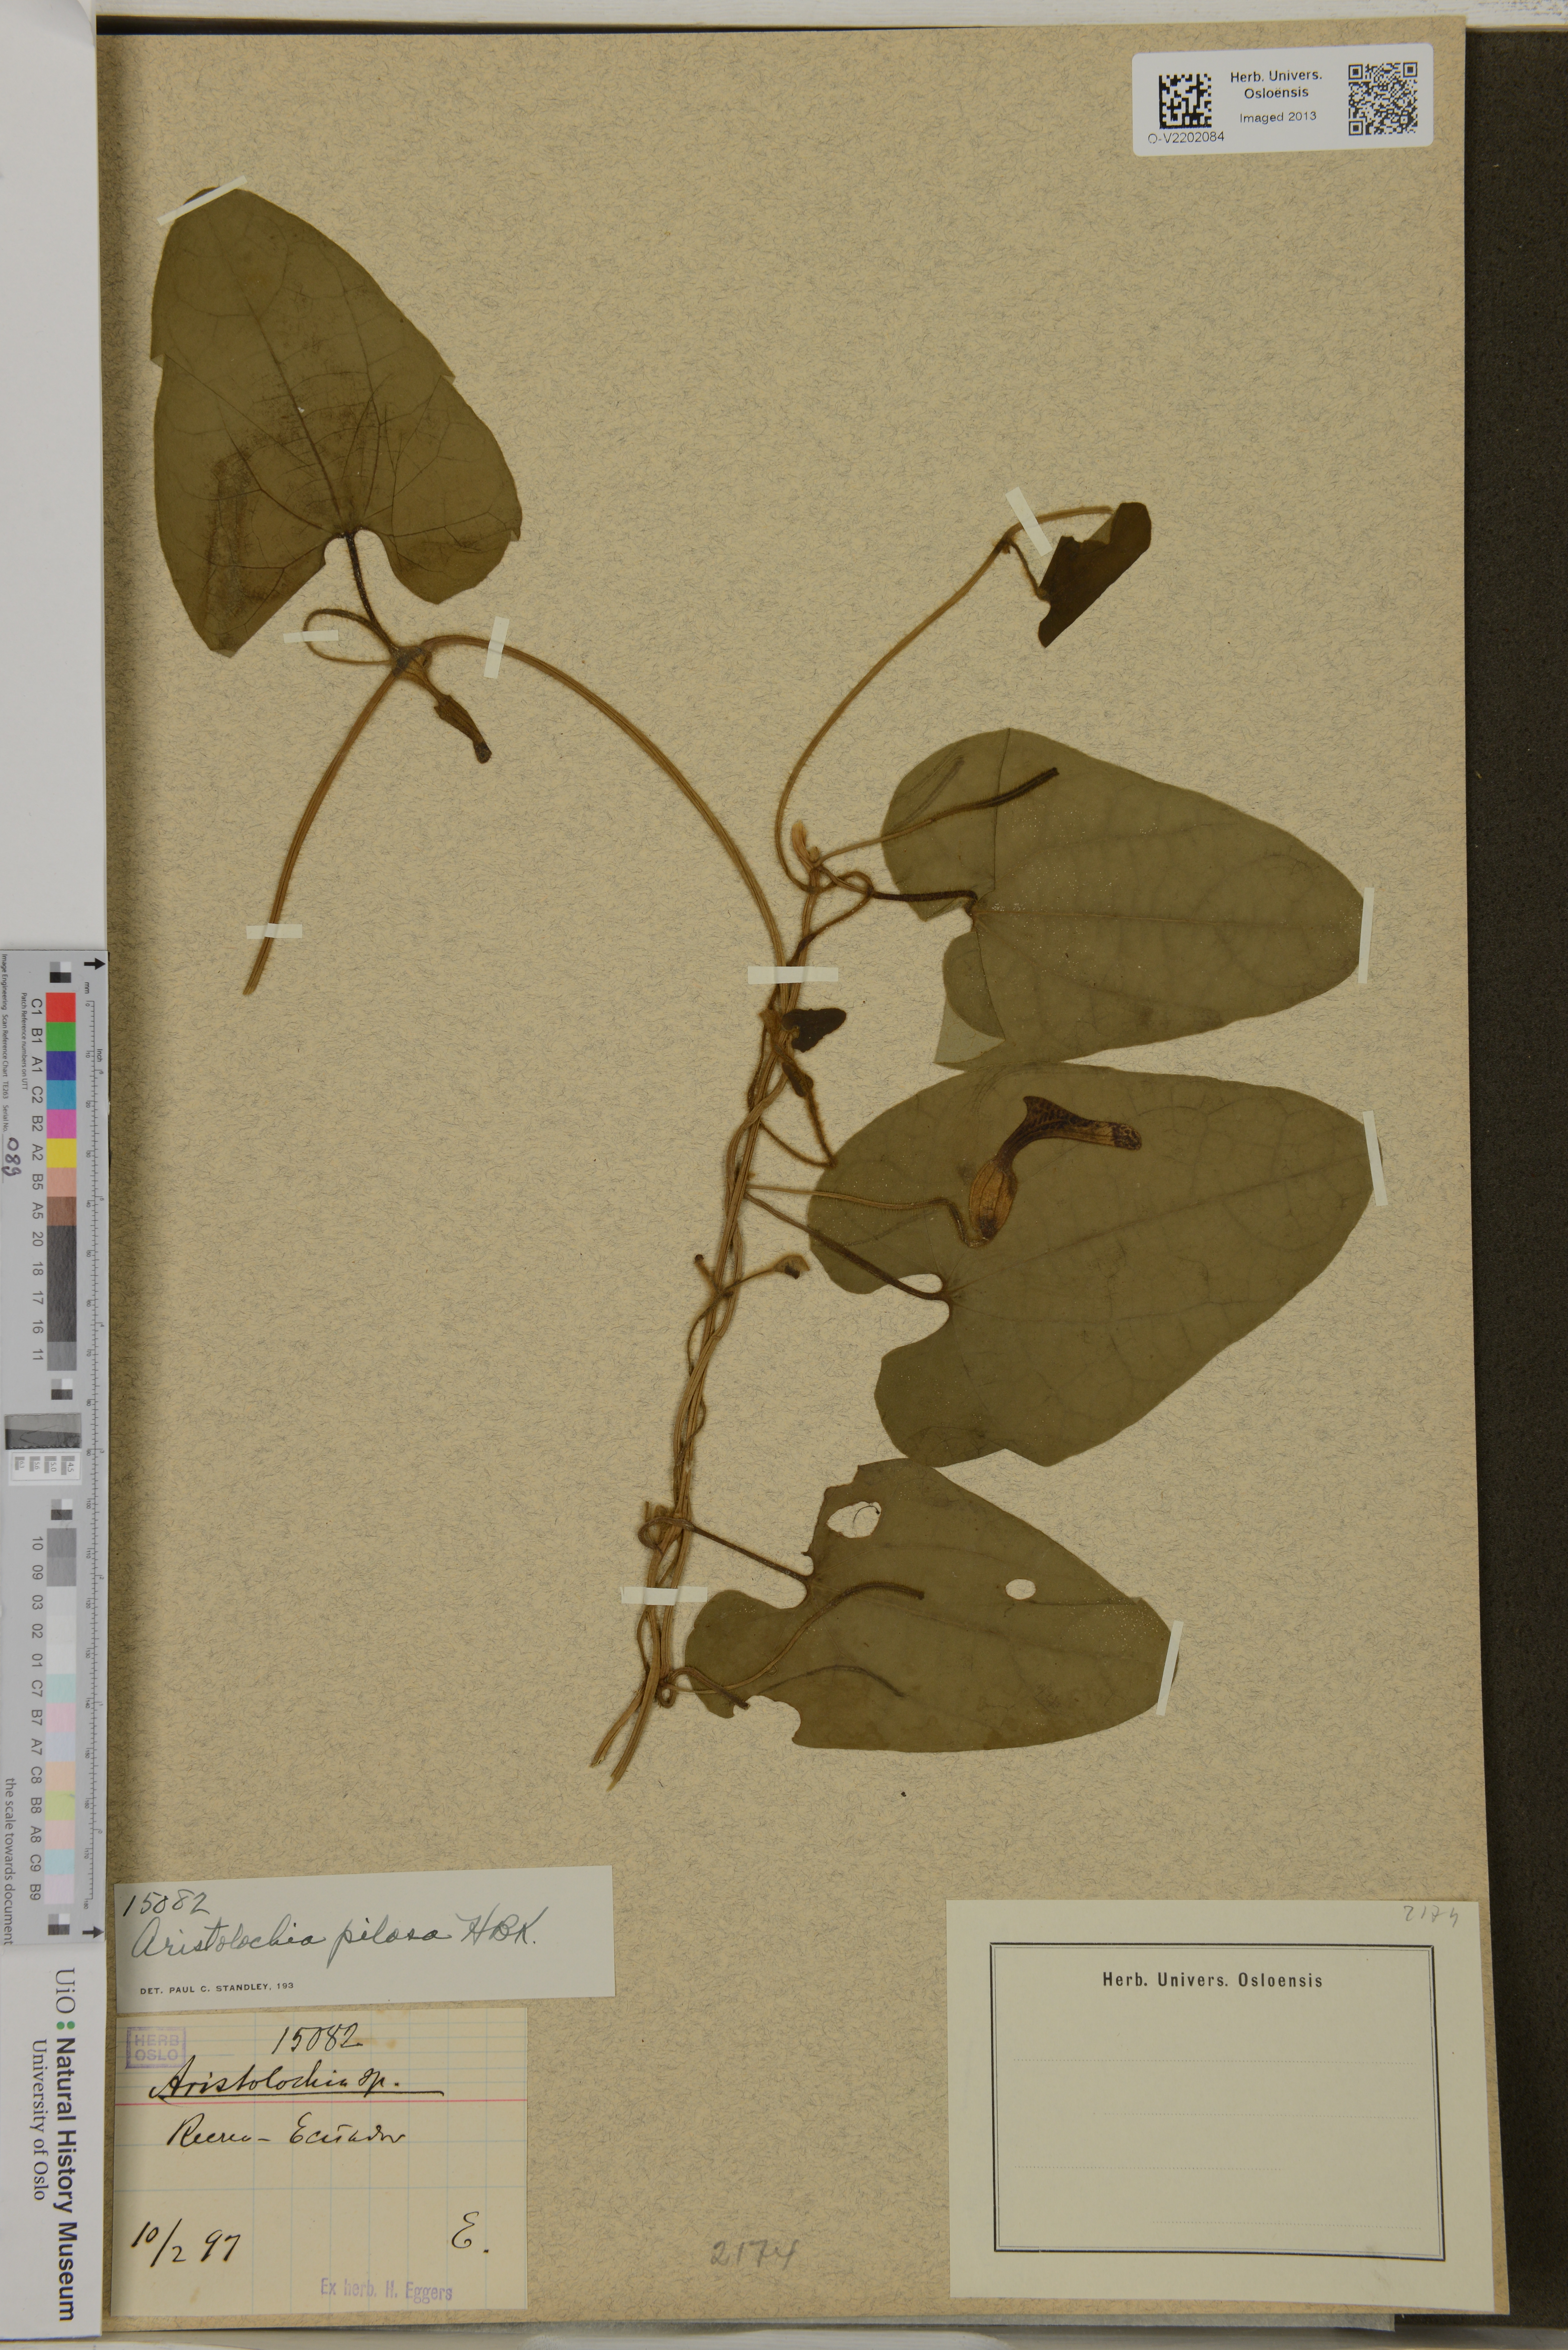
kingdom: Plantae
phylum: Tracheophyta
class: Magnoliopsida
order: Piperales
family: Aristolochiaceae
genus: Aristolochia
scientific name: Aristolochia pilosa
